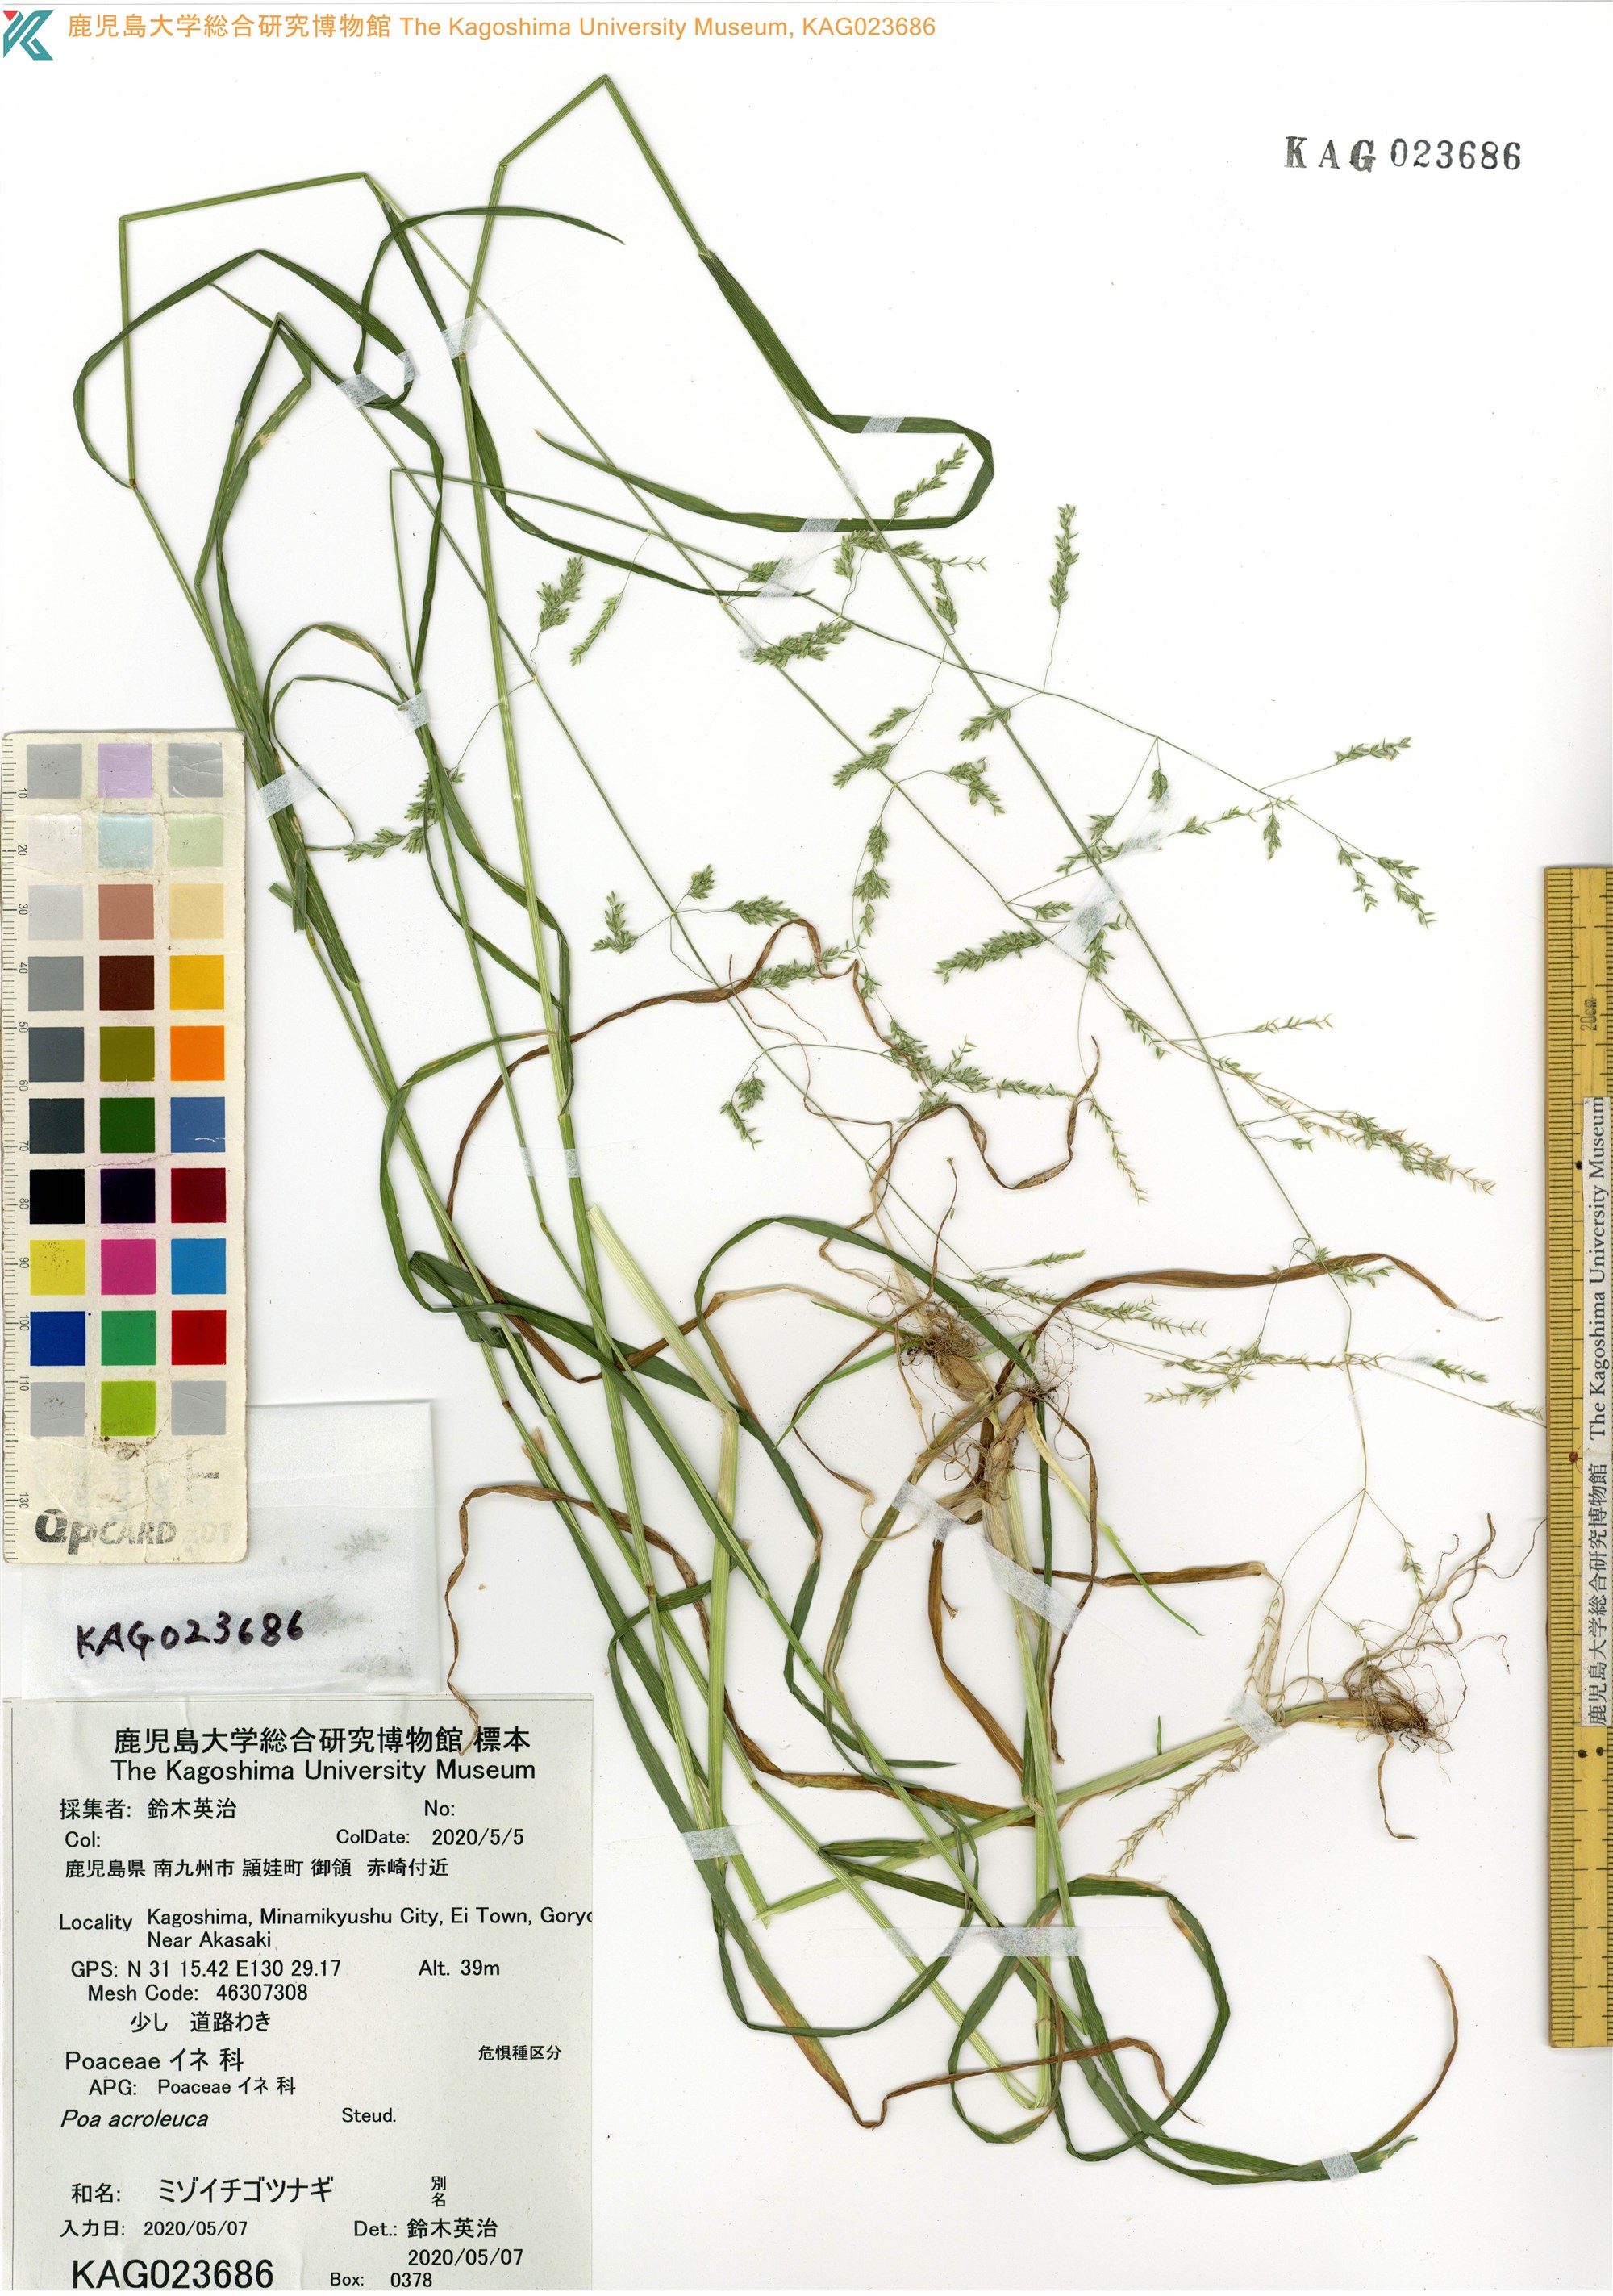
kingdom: Plantae
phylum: Tracheophyta
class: Liliopsida
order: Poales
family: Poaceae
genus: Poa
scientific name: Poa acroleuca
